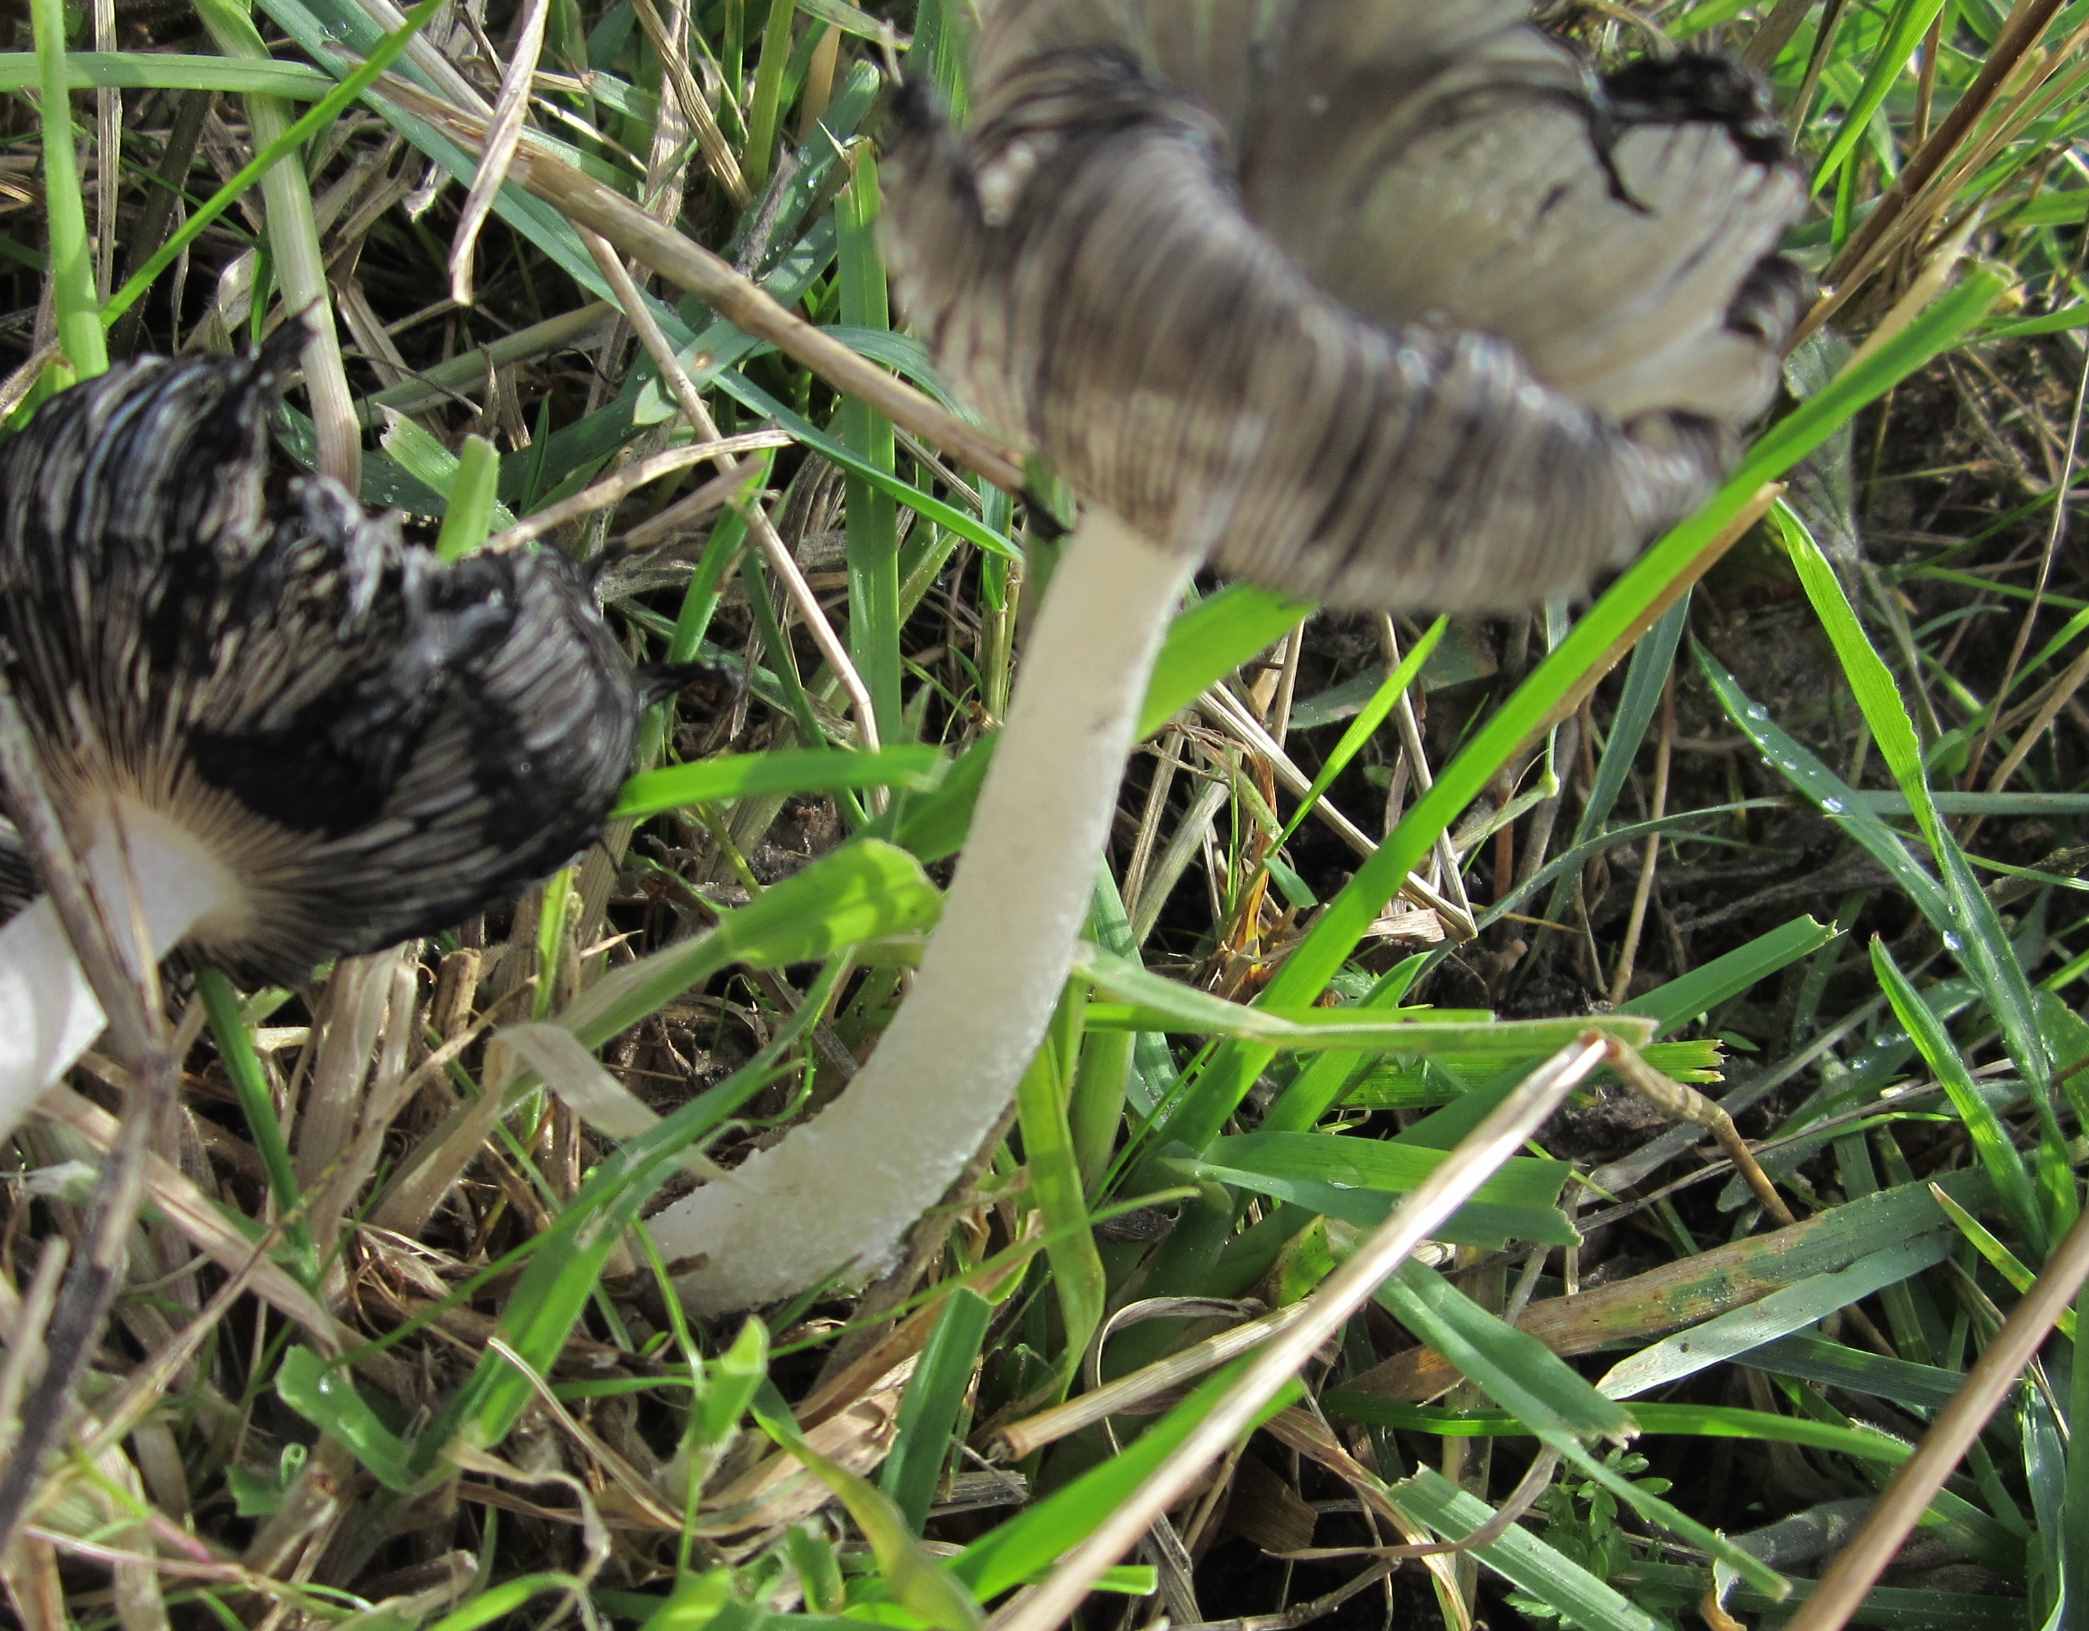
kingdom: Fungi
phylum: Basidiomycota
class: Agaricomycetes
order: Agaricales
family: Psathyrellaceae
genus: Coprinopsis
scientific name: Coprinopsis lagopus
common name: dunstokket blækhat
